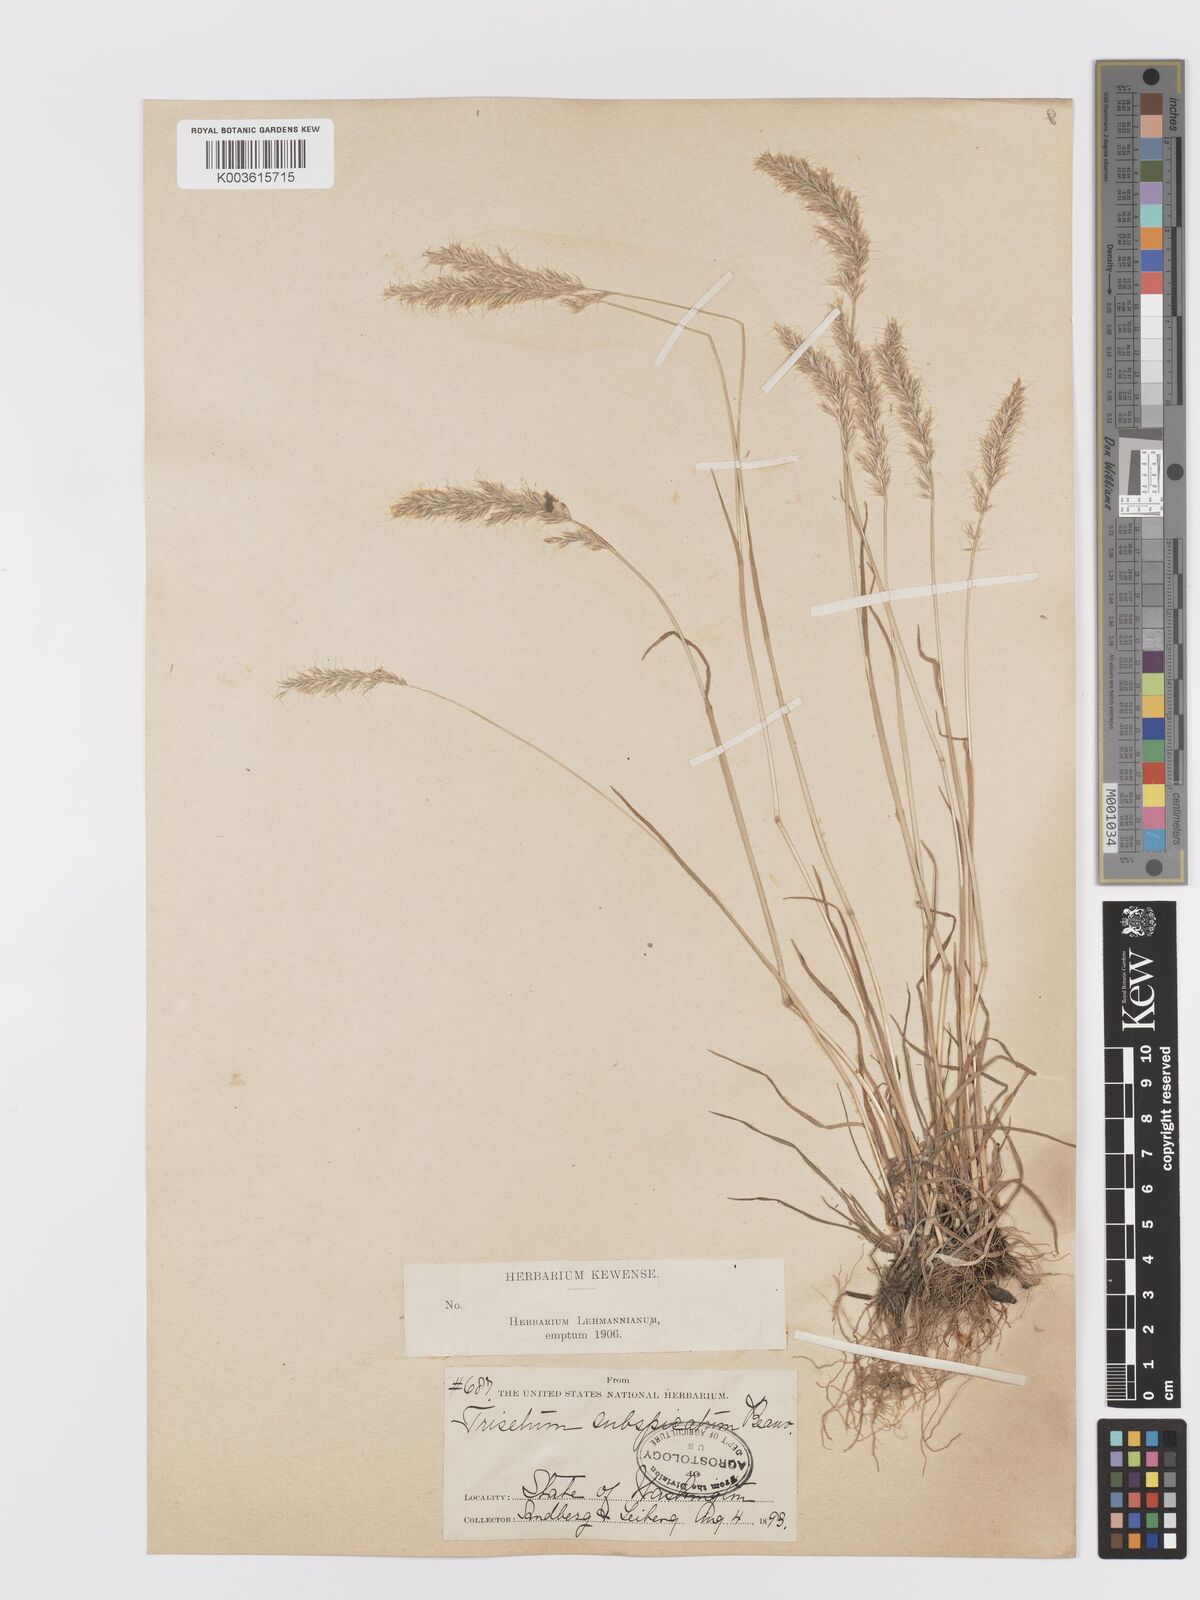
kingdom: Plantae
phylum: Tracheophyta
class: Liliopsida
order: Poales
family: Poaceae
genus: Koeleria
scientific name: Koeleria spicata
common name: Mountain trisetum
